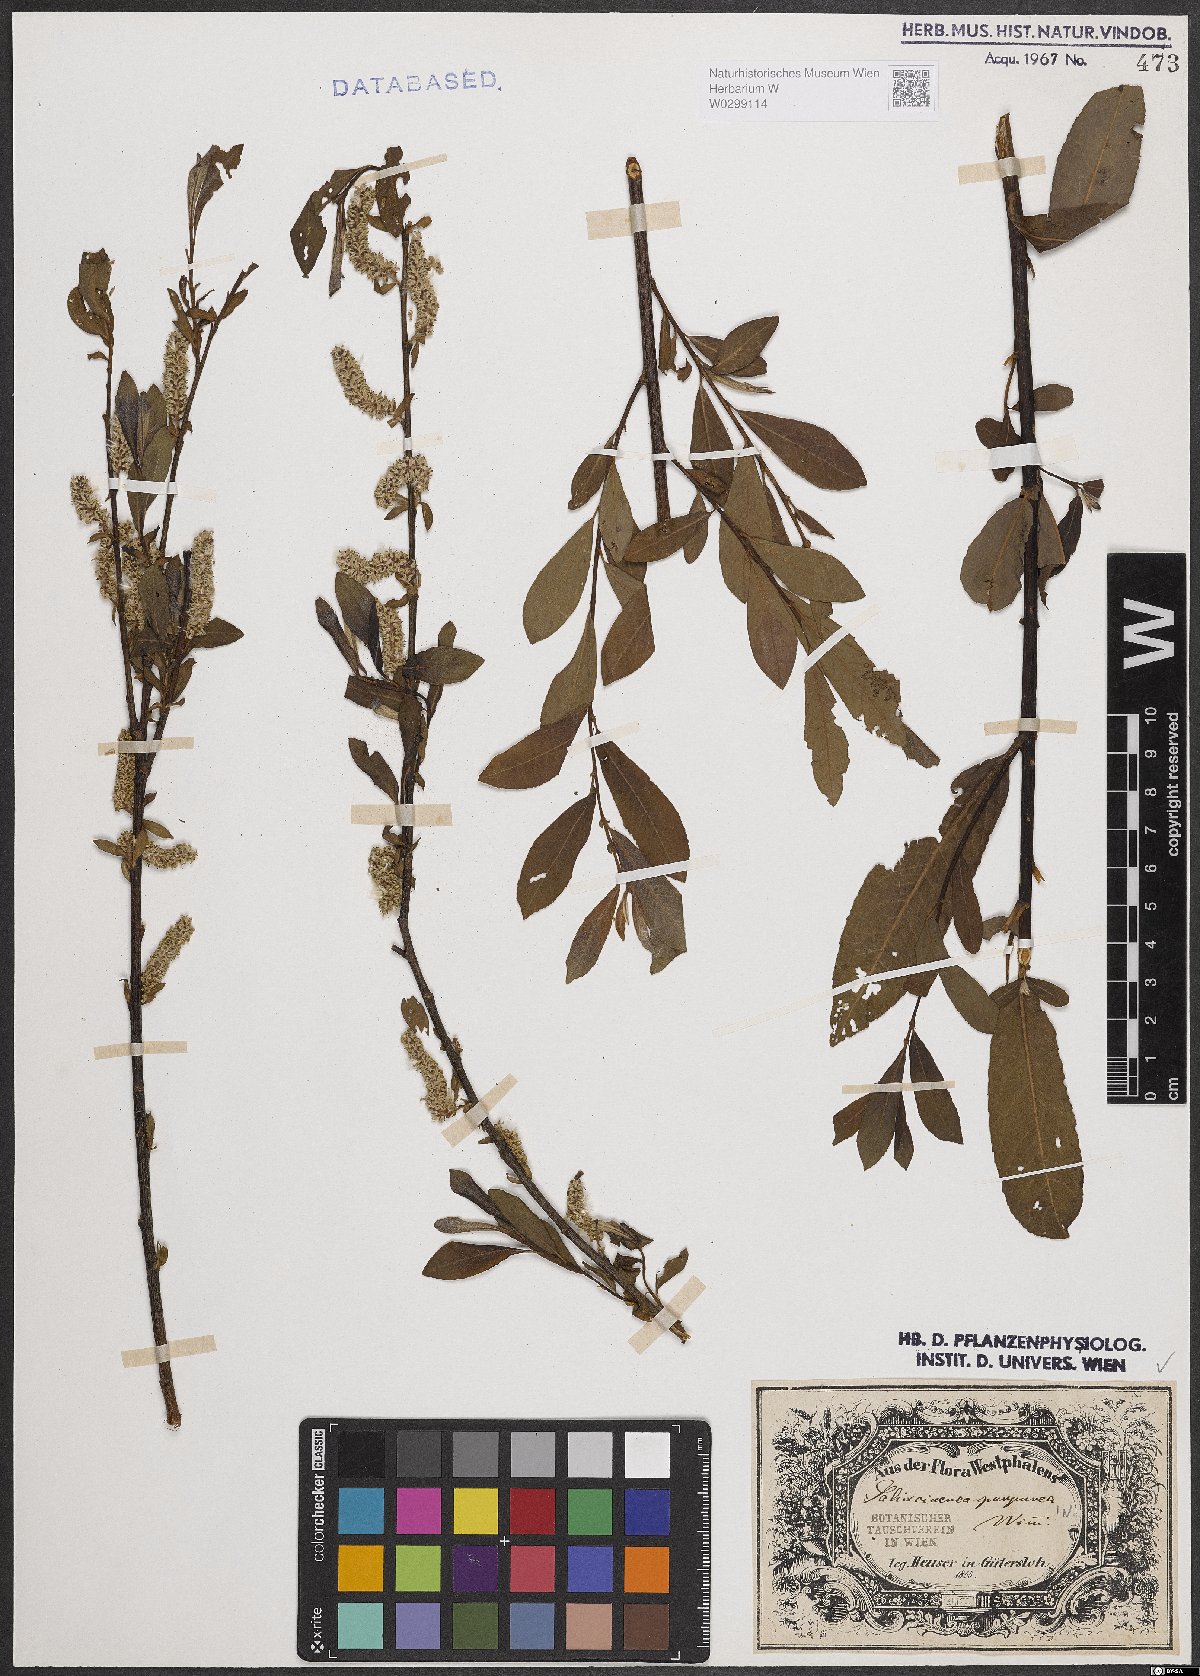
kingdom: Plantae
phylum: Tracheophyta
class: Magnoliopsida
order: Malpighiales
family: Salicaceae
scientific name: Salicaceae
